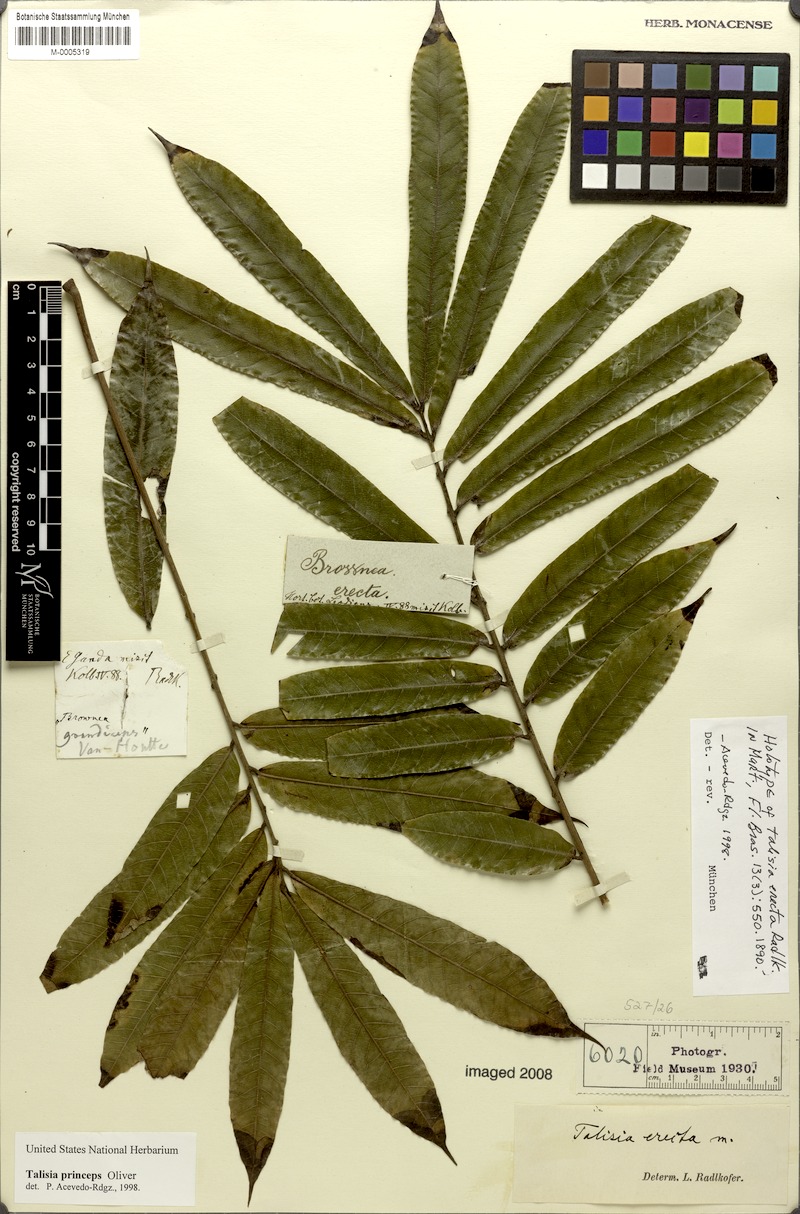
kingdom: Plantae
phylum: Tracheophyta
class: Magnoliopsida
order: Sapindales
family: Sapindaceae
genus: Talisia
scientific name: Talisia princeps
